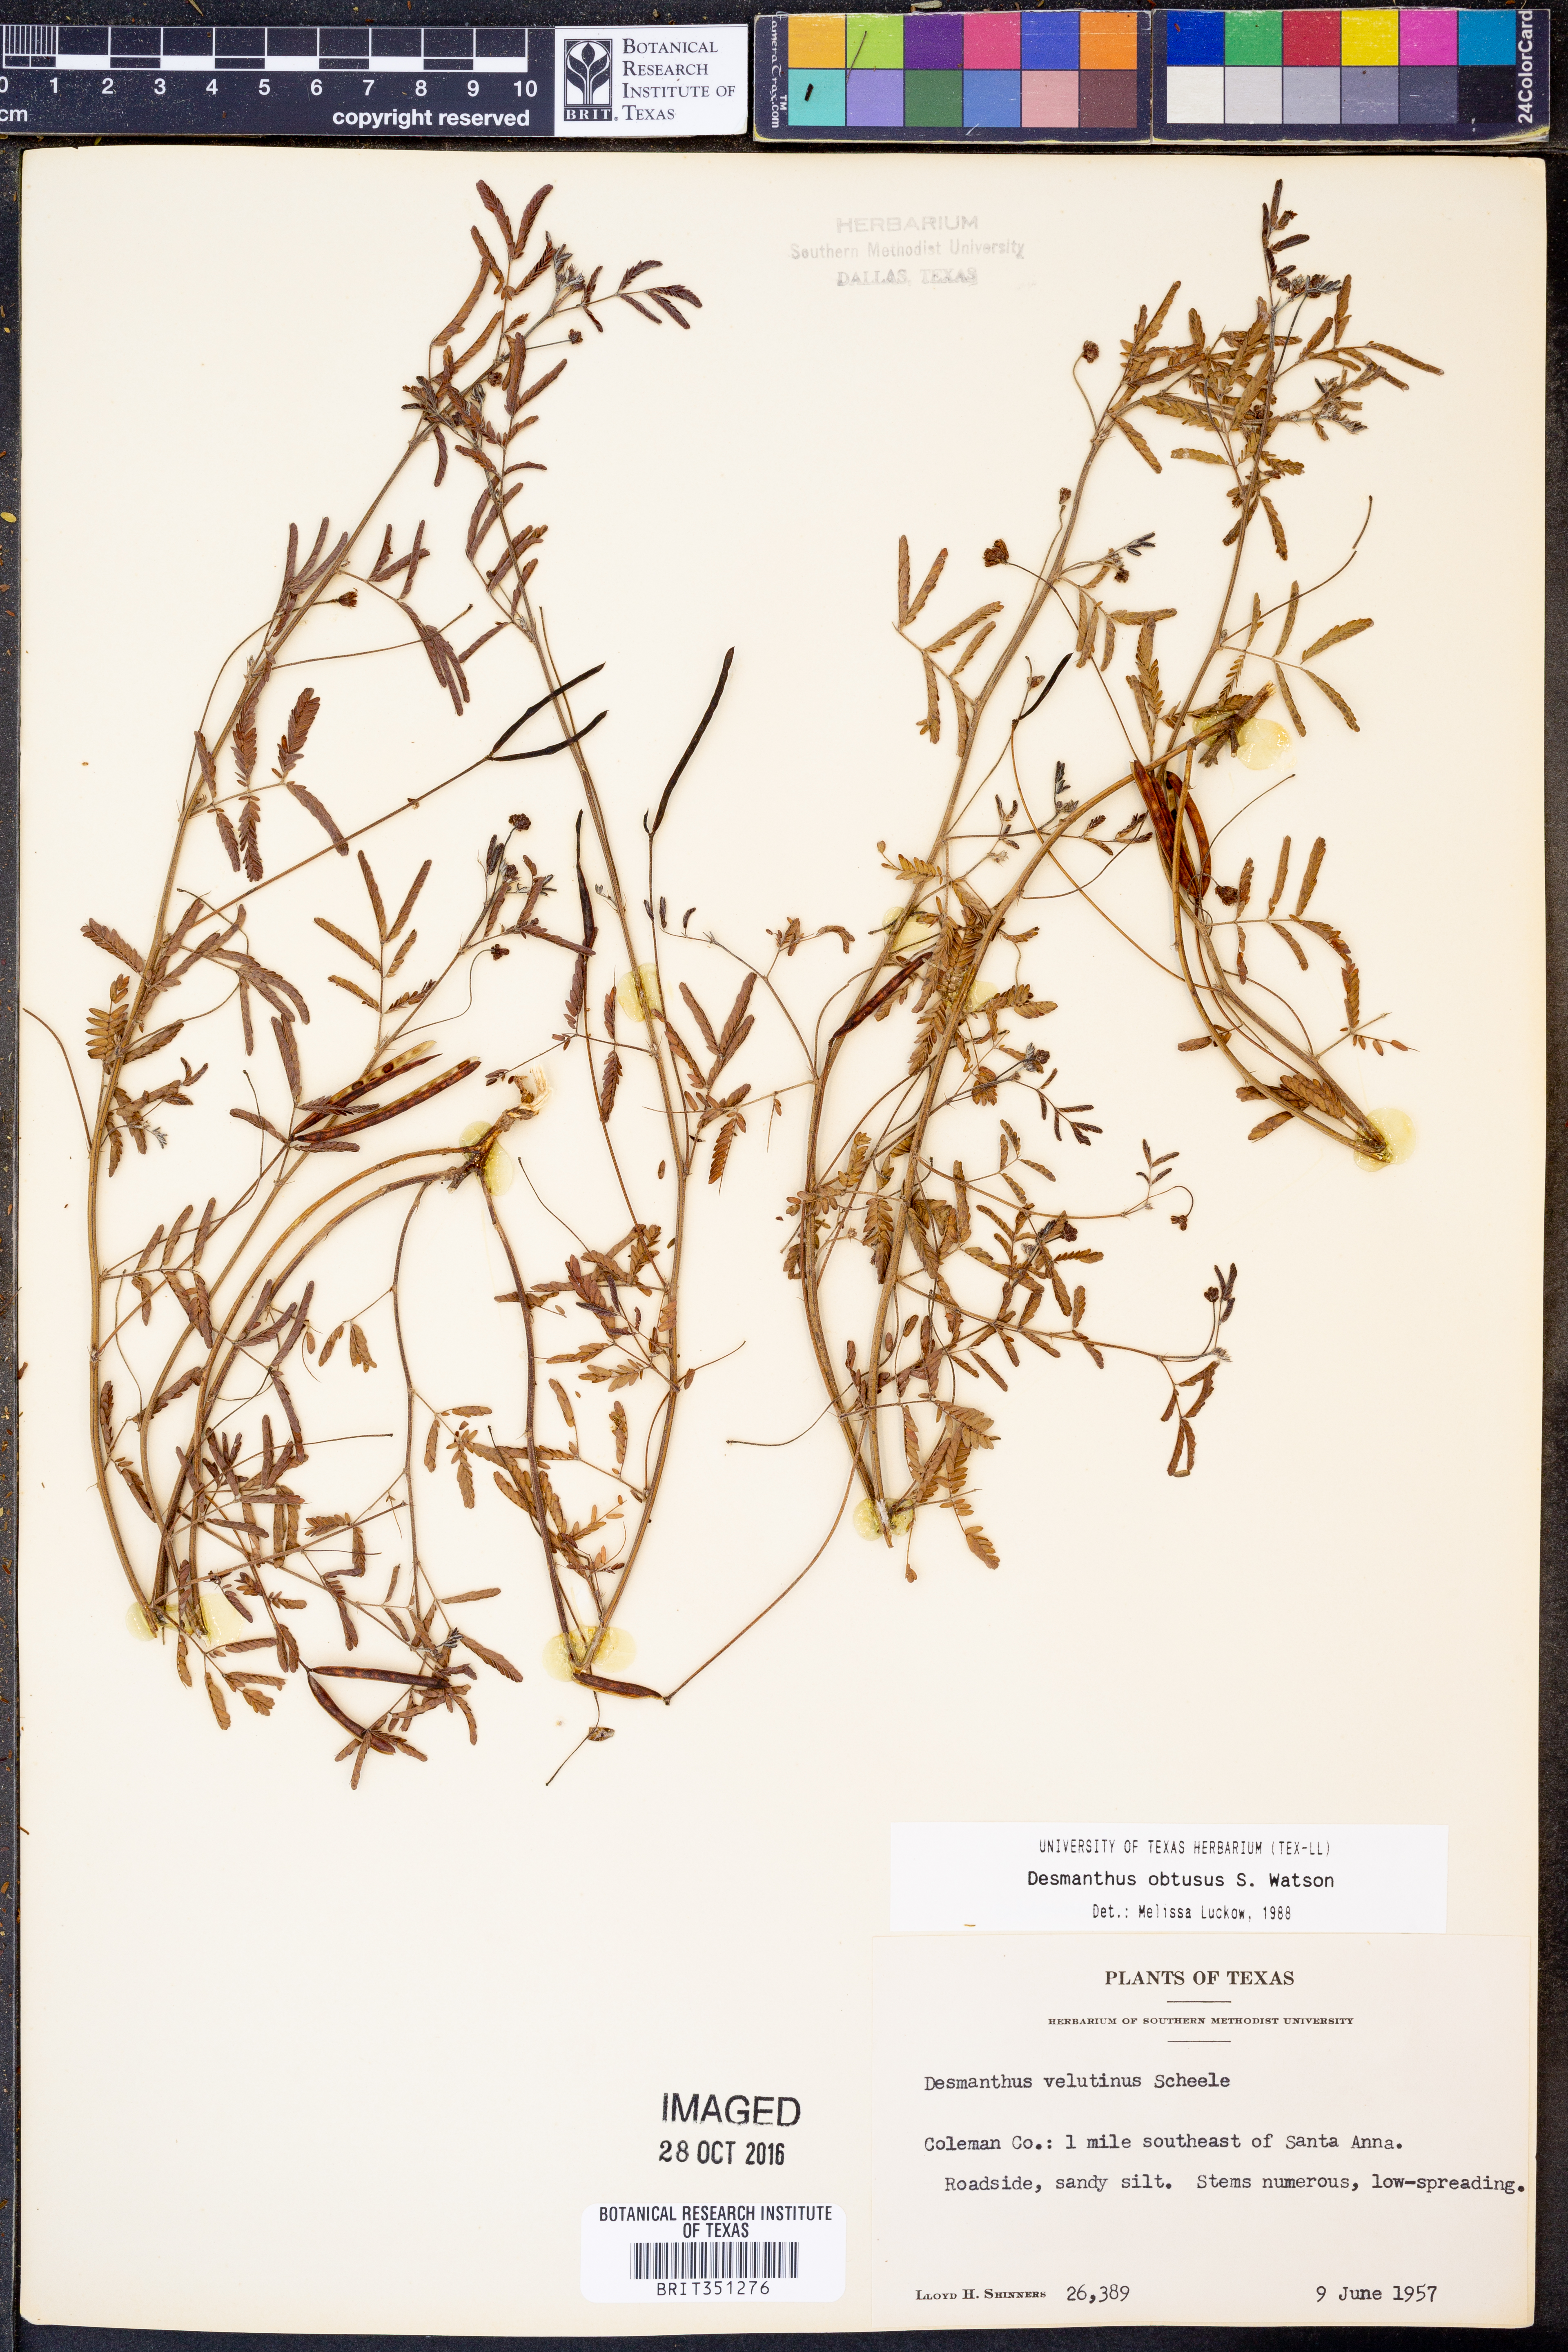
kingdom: Plantae
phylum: Tracheophyta
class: Magnoliopsida
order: Fabales
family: Fabaceae
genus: Desmanthus
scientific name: Desmanthus obtusus
